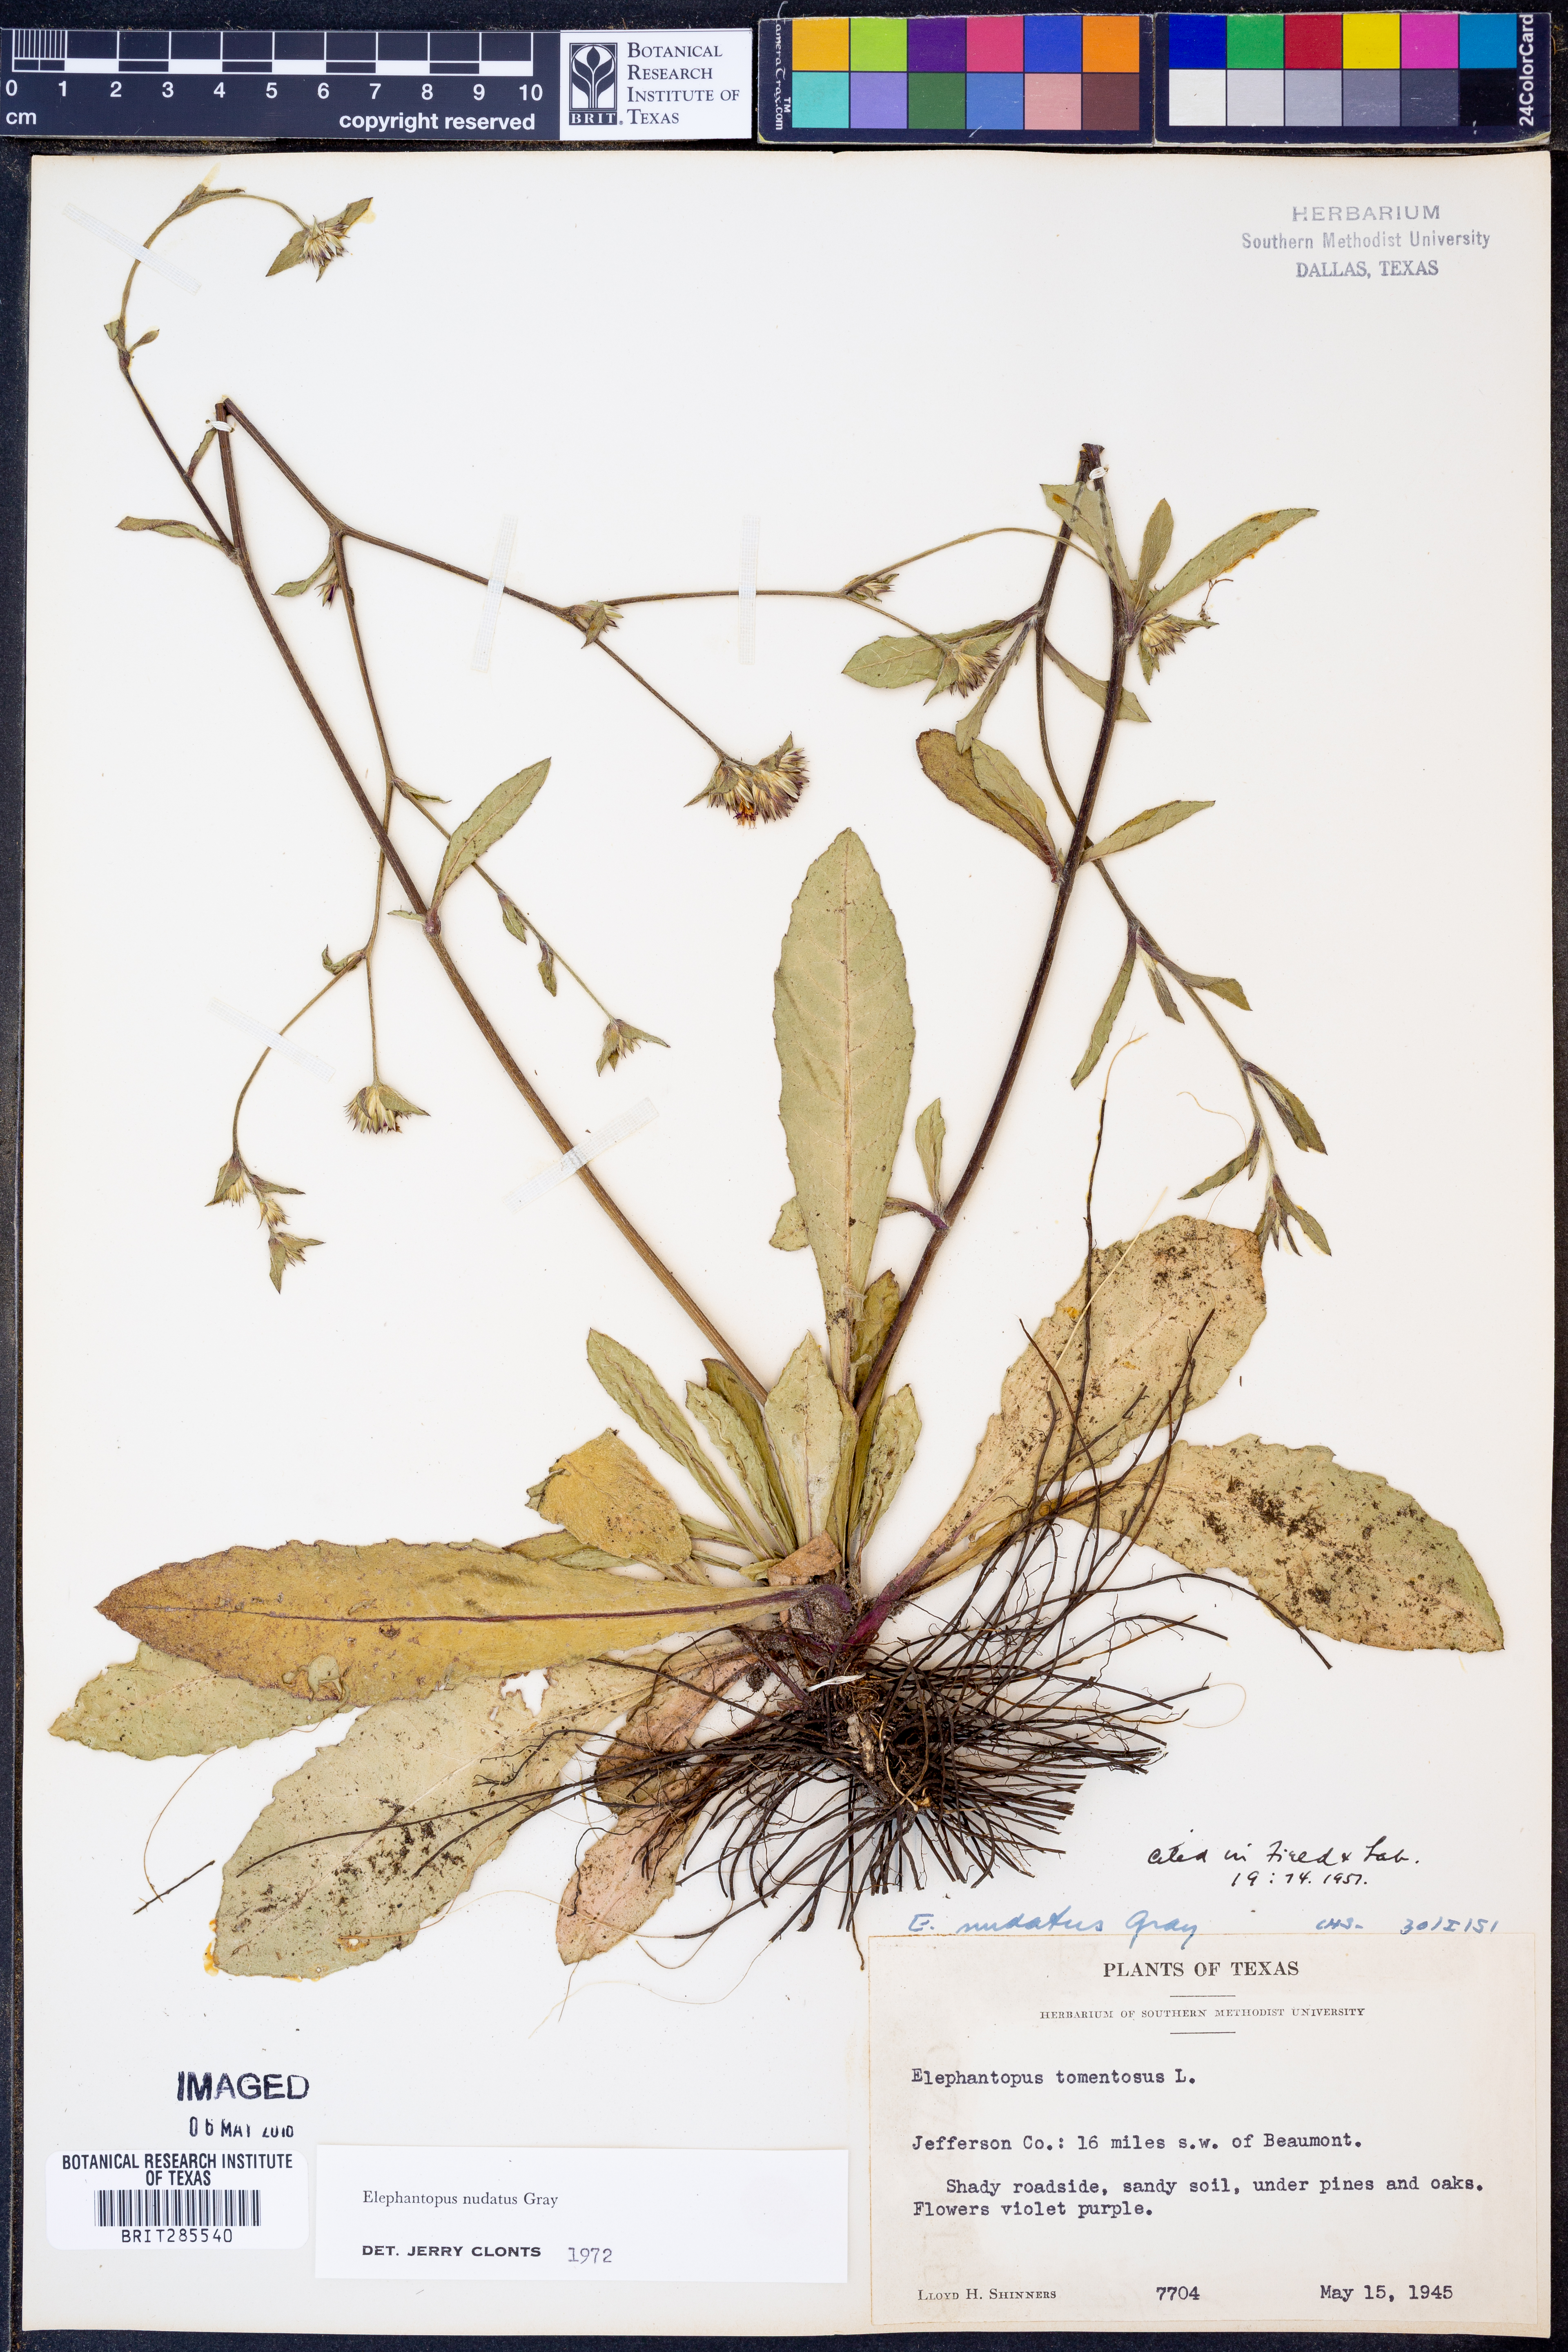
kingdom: Plantae
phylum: Tracheophyta
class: Magnoliopsida
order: Asterales
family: Asteraceae
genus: Elephantopus
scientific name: Elephantopus nudatus
